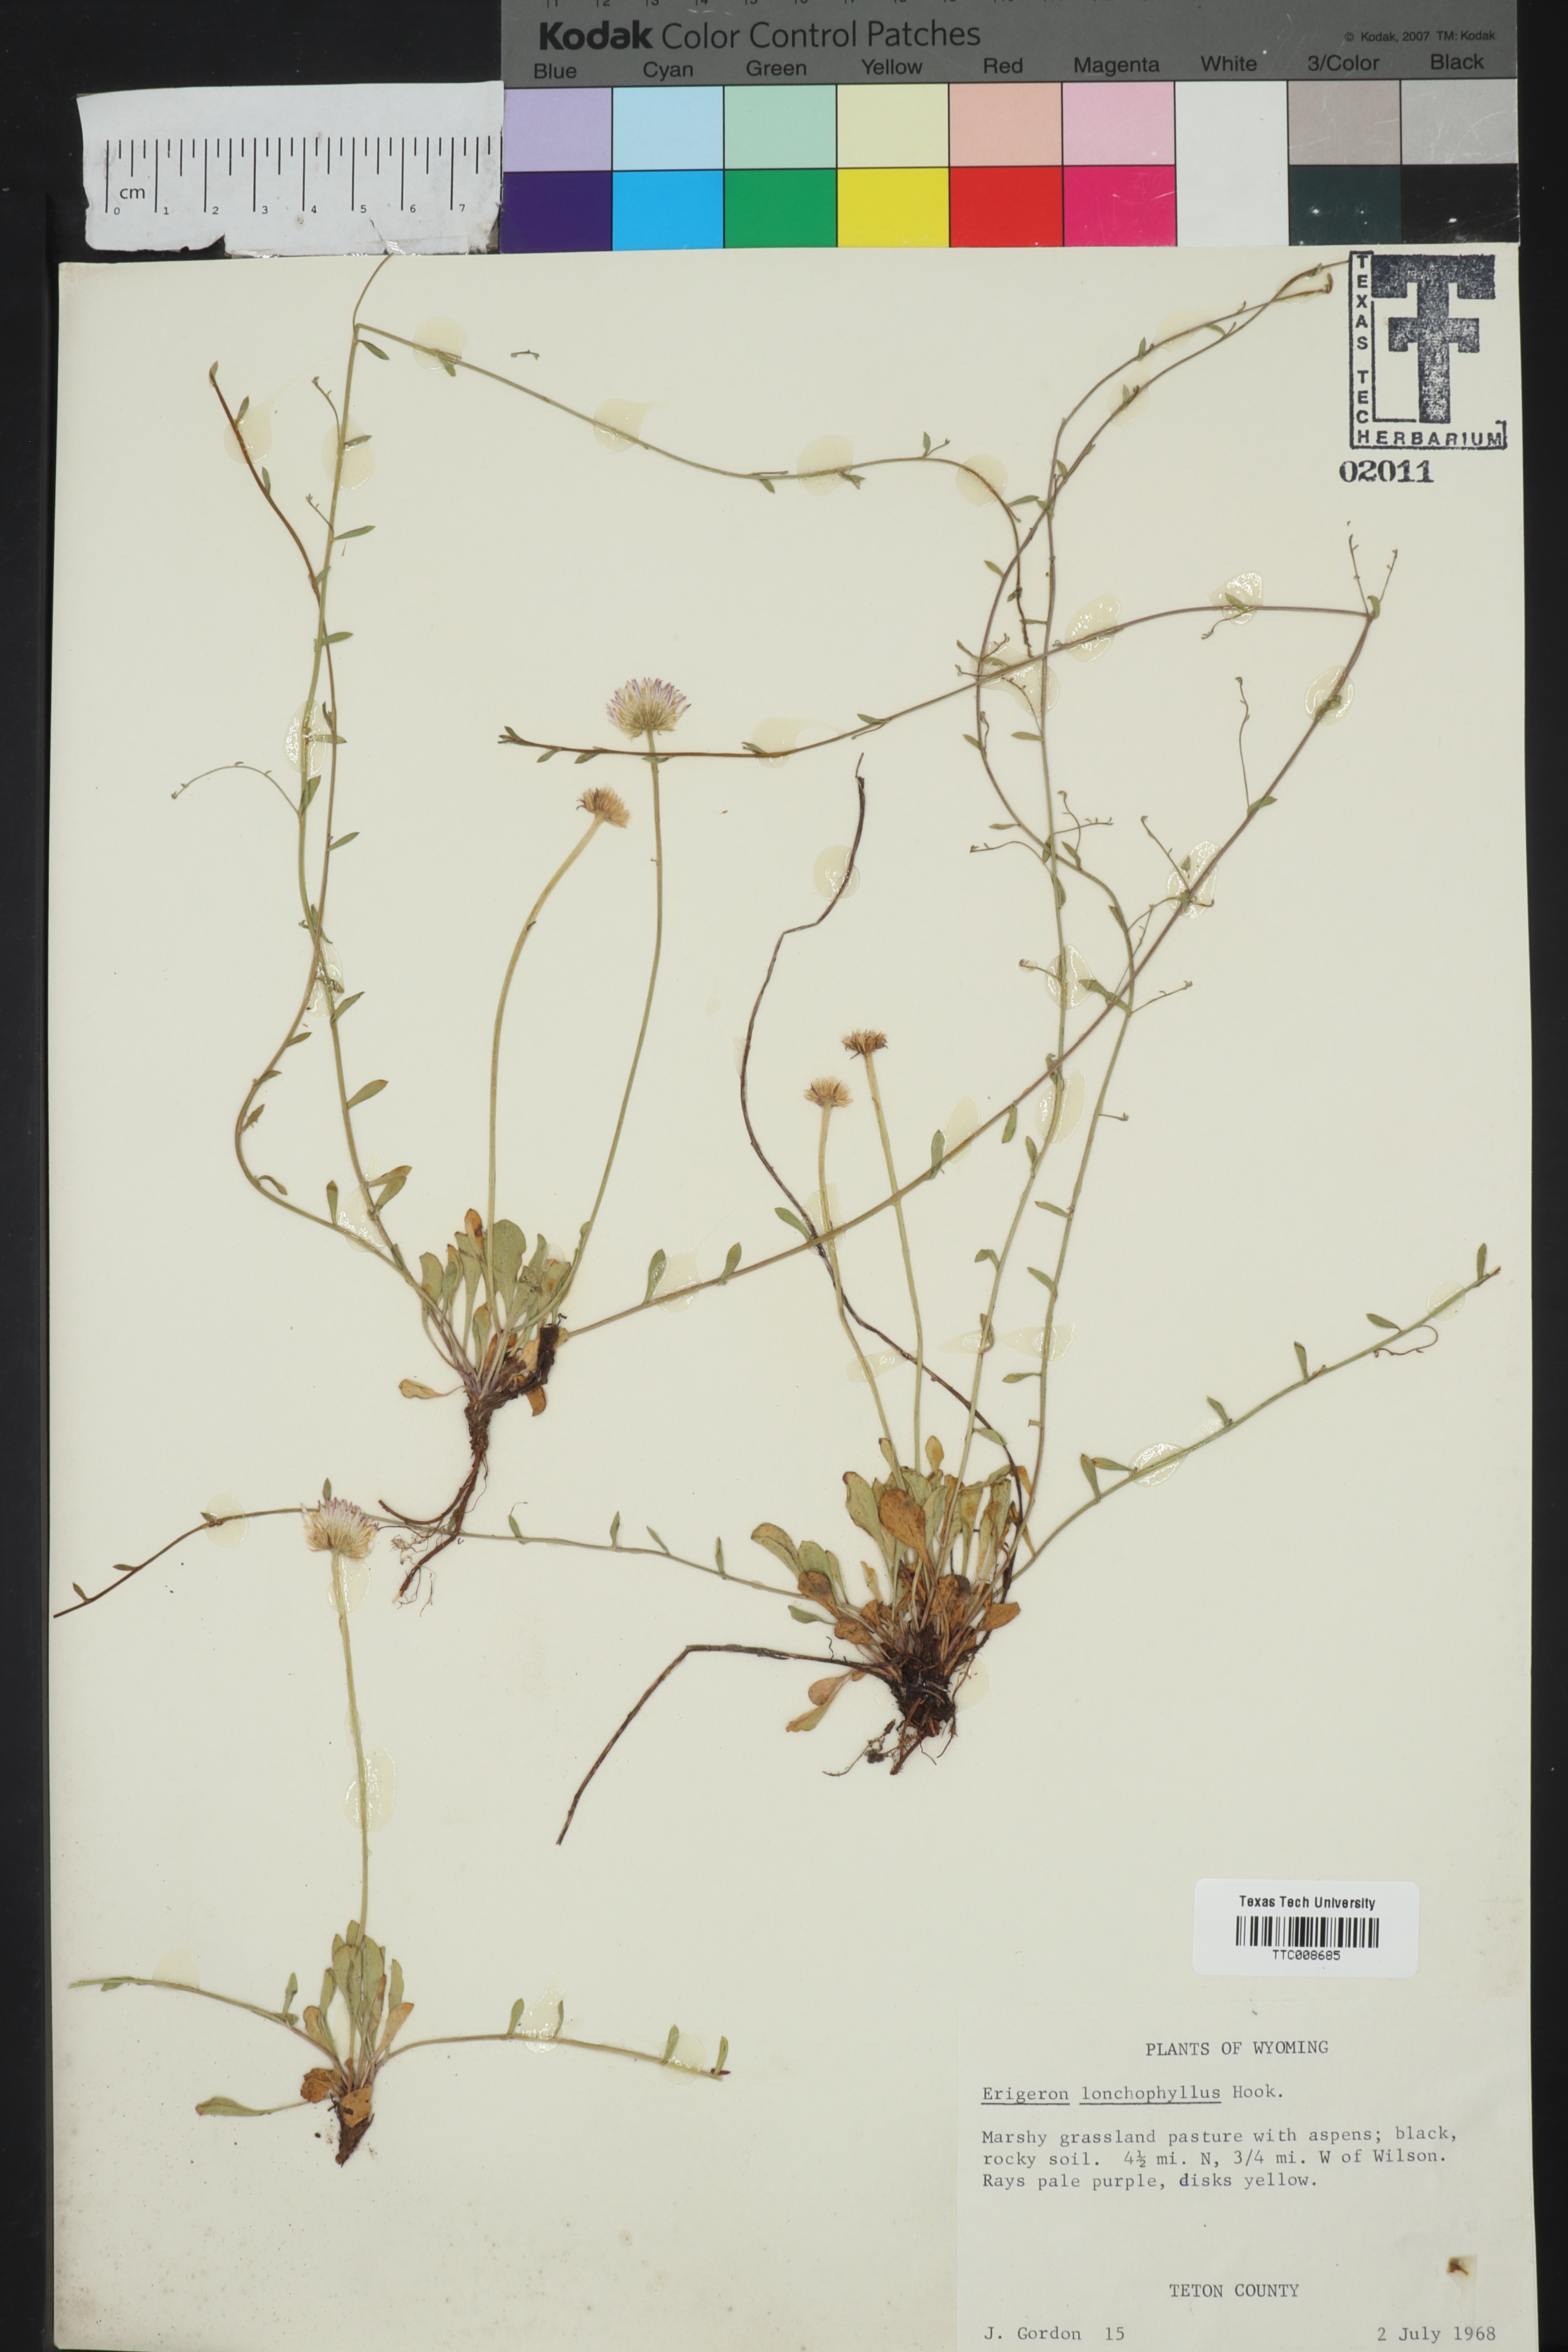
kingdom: Plantae
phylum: Tracheophyta
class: Magnoliopsida
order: Asterales
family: Asteraceae
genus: Erigeron
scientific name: Erigeron lonchophyllus
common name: Short-ray fleabane
